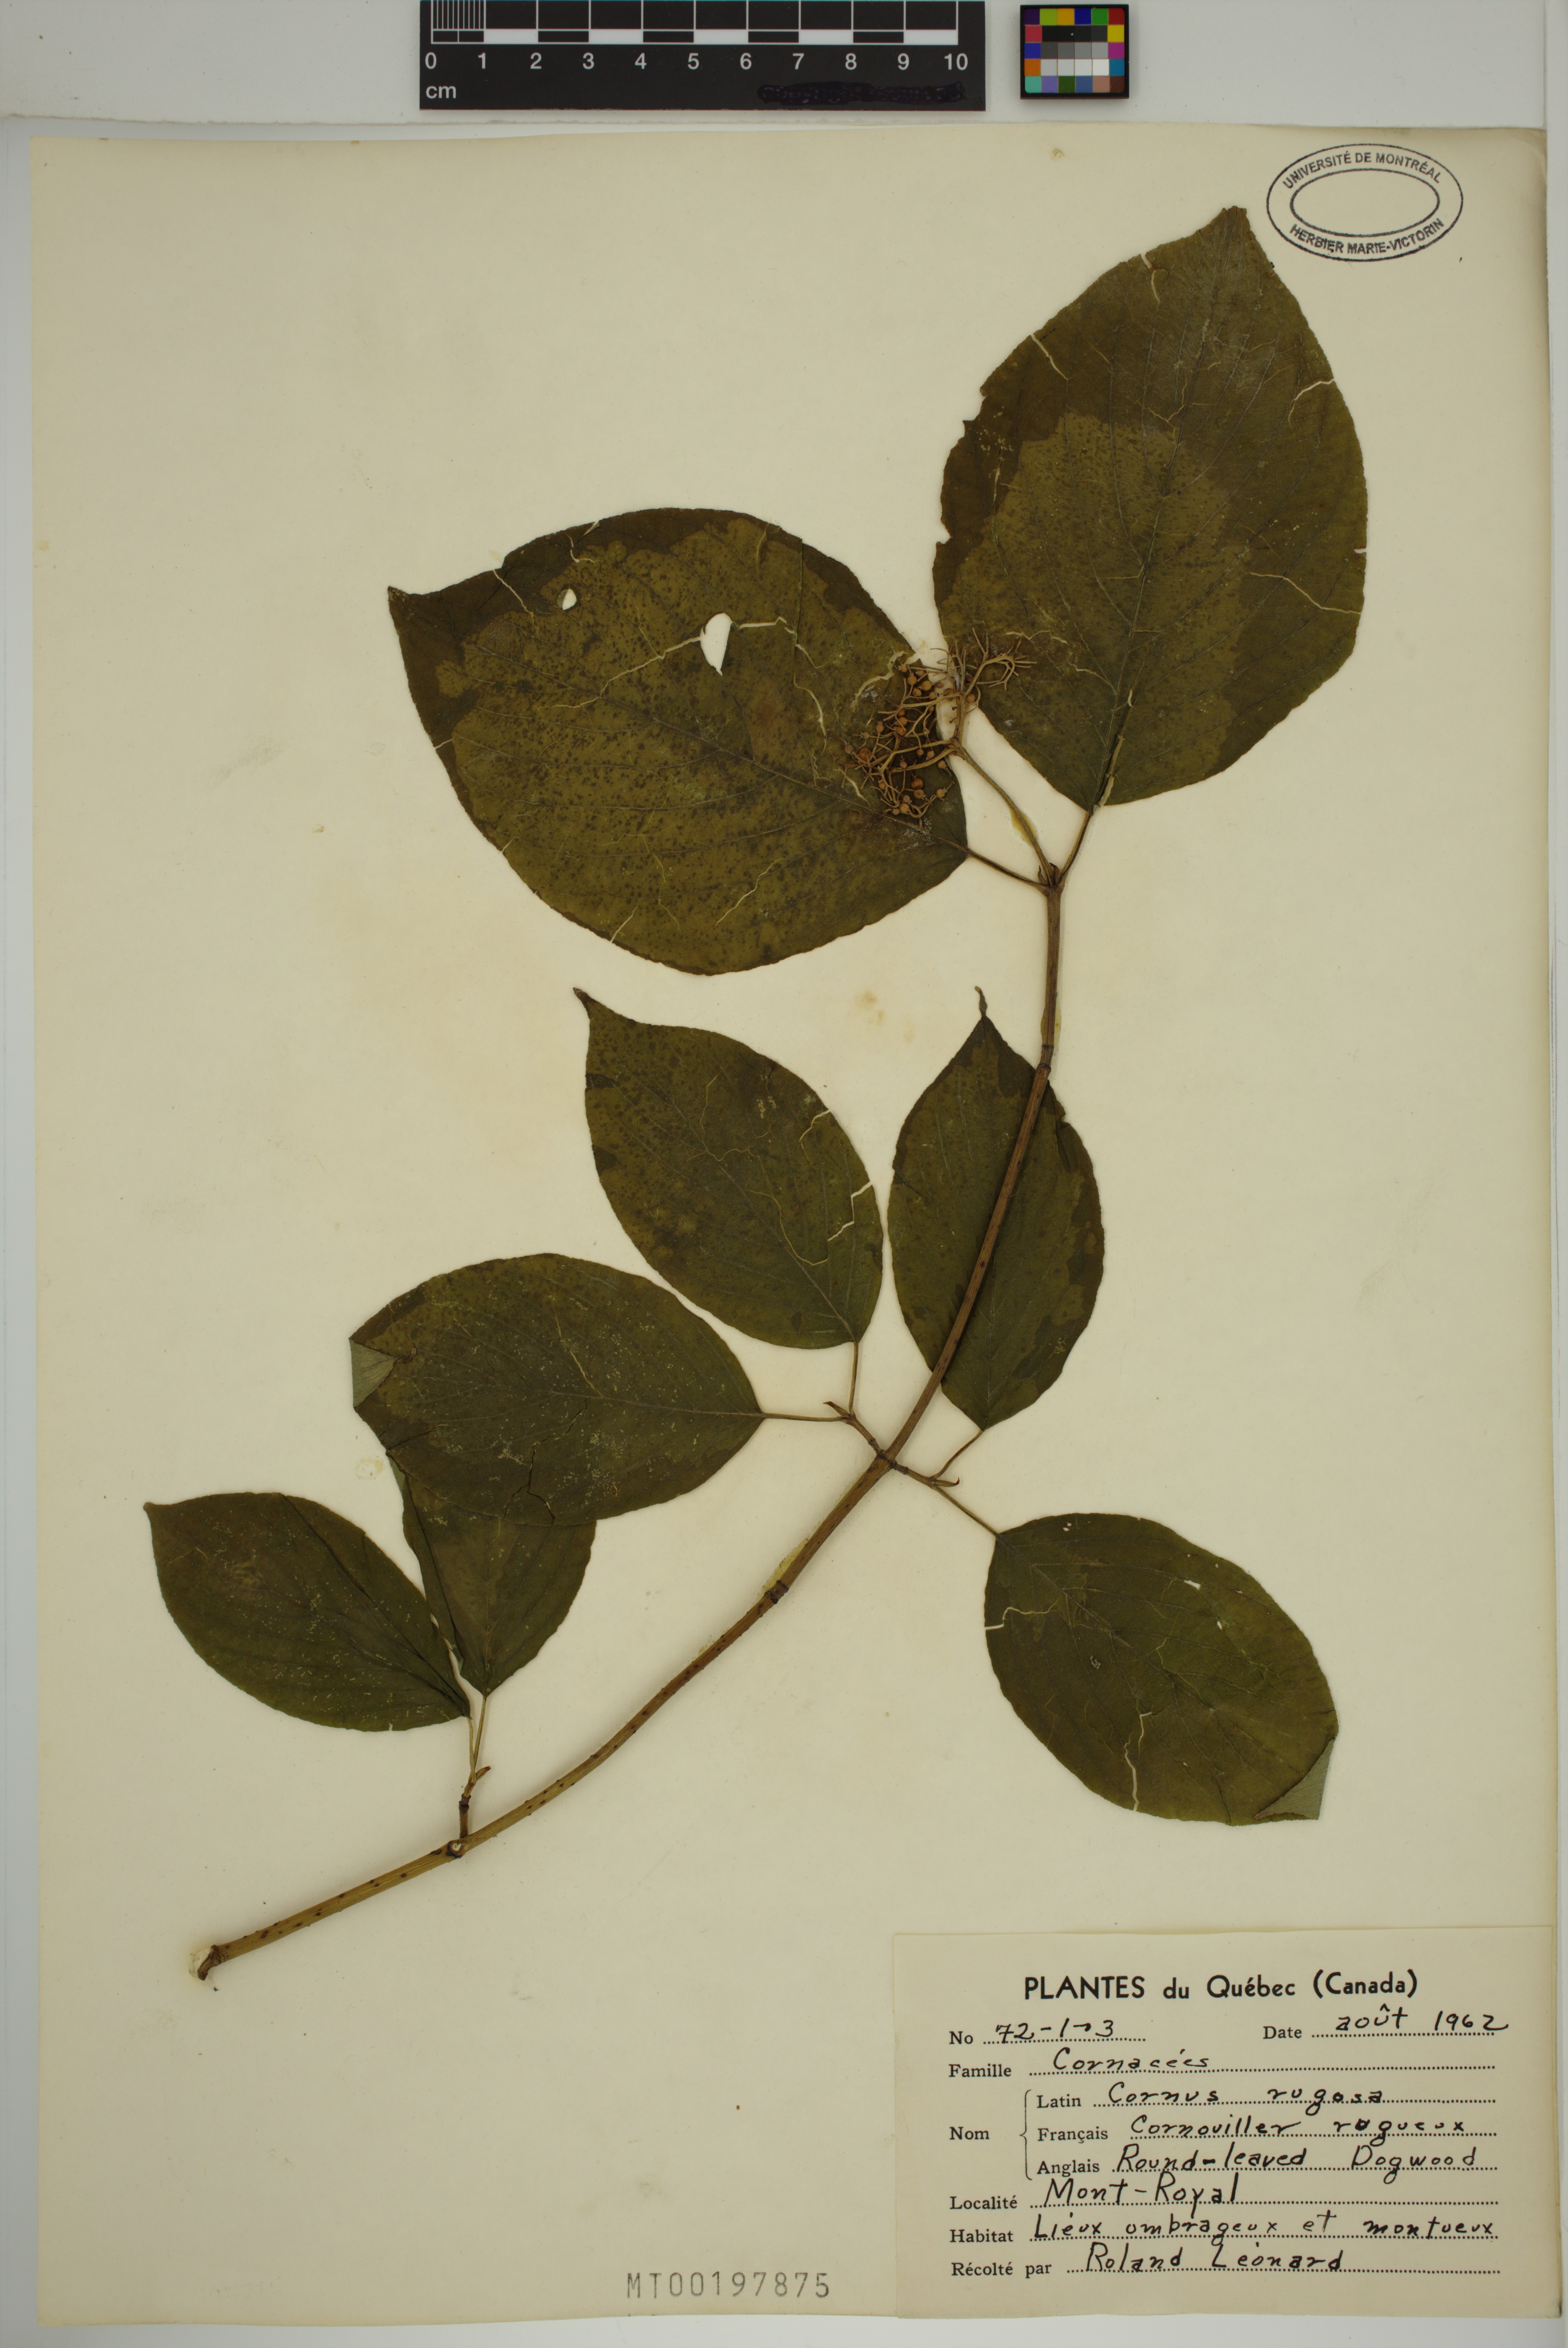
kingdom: Plantae
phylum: Tracheophyta
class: Magnoliopsida
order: Cornales
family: Cornaceae
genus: Cornus
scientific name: Cornus rugosa
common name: Round-leaf dogwood
